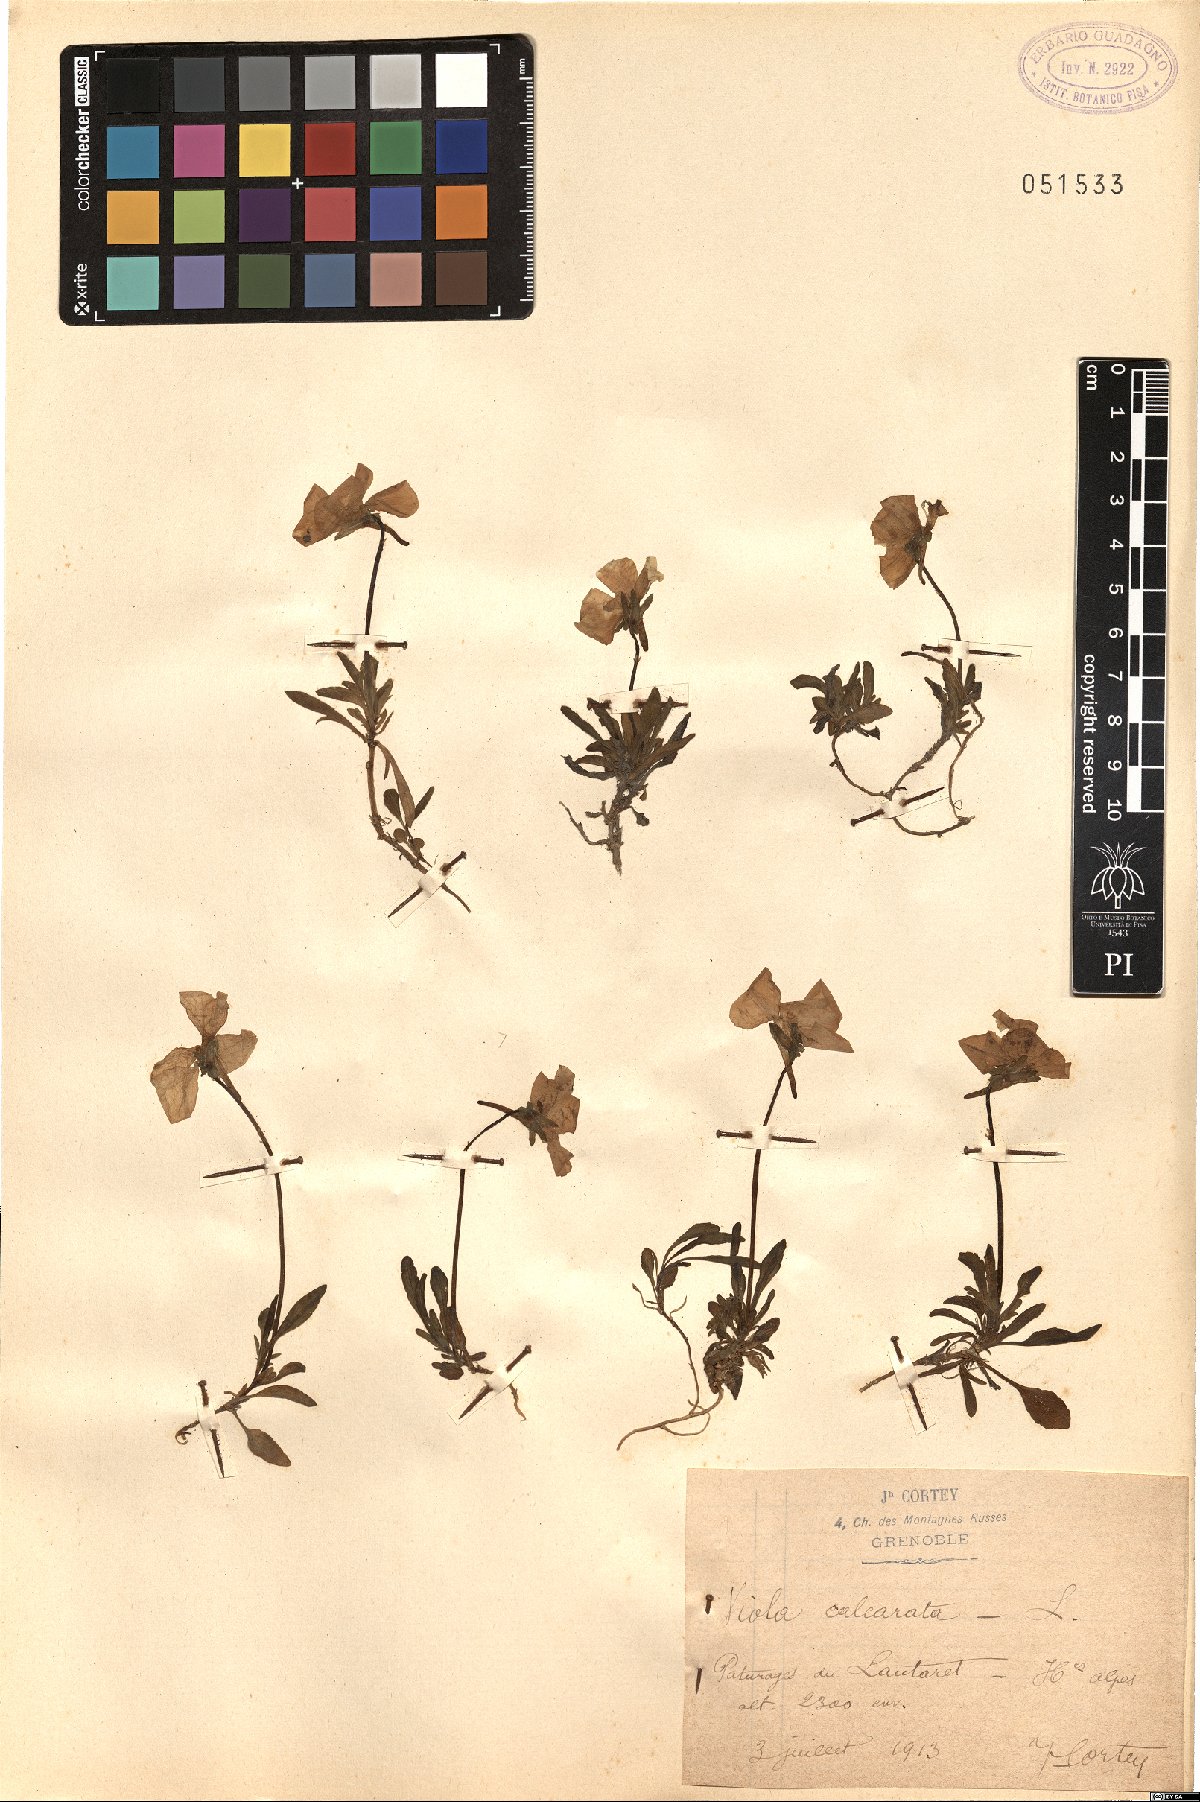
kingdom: Plantae
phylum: Tracheophyta
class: Magnoliopsida
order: Malpighiales
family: Violaceae
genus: Viola
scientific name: Viola calcarata
